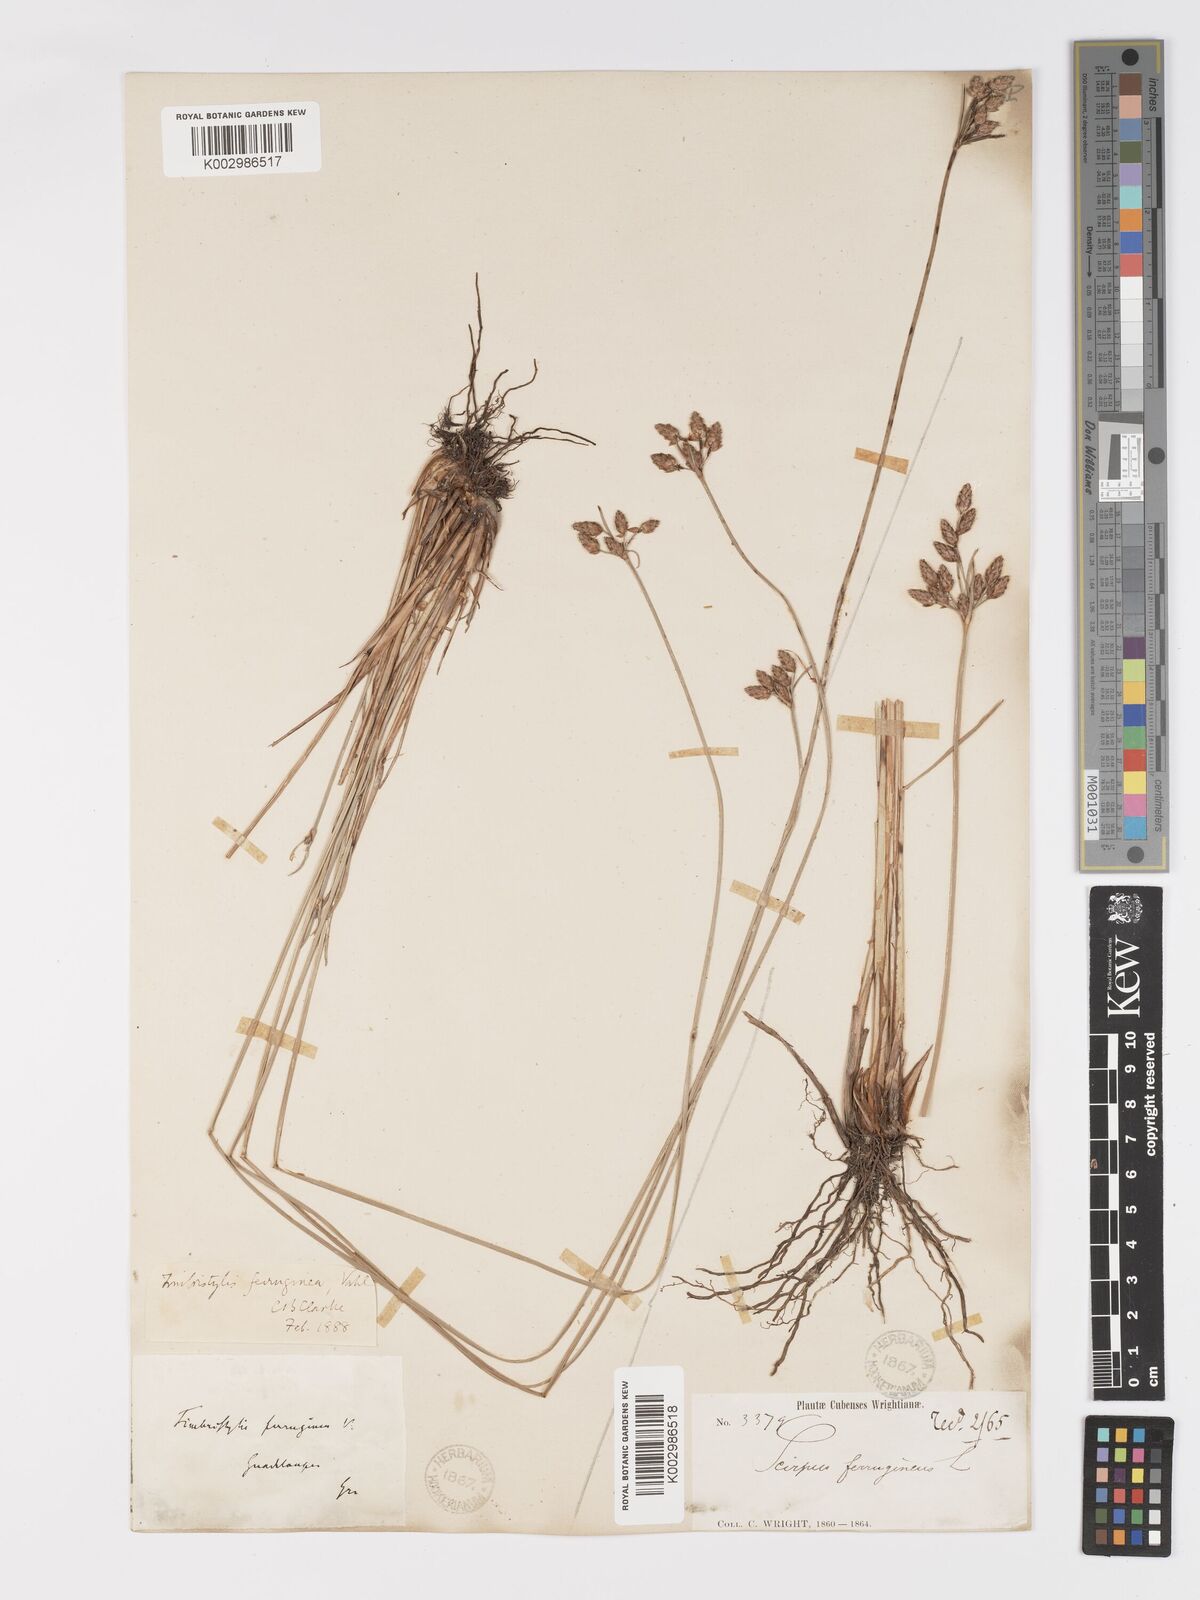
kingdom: Plantae
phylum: Tracheophyta
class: Liliopsida
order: Poales
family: Cyperaceae
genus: Fimbristylis
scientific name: Fimbristylis ferruginea
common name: West indian fimbry
